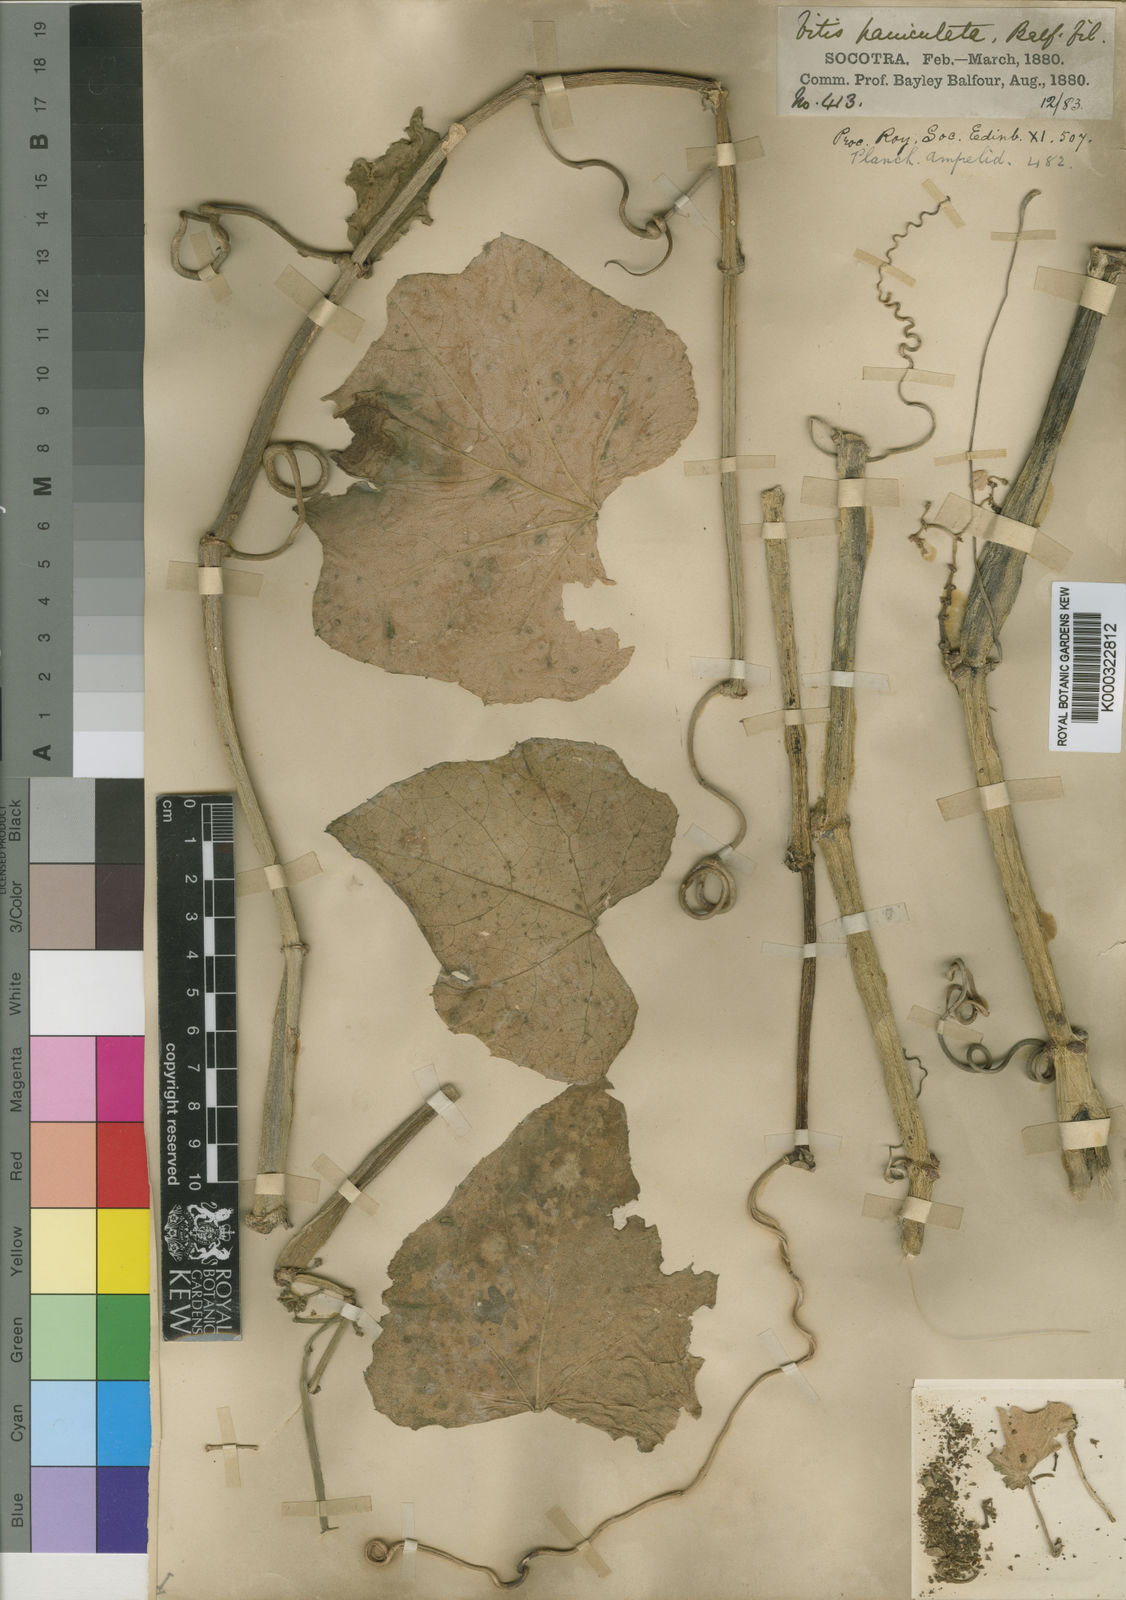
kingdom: Plantae
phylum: Tracheophyta
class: Magnoliopsida
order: Vitales
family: Vitaceae
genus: Cissus
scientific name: Cissus paniculata
